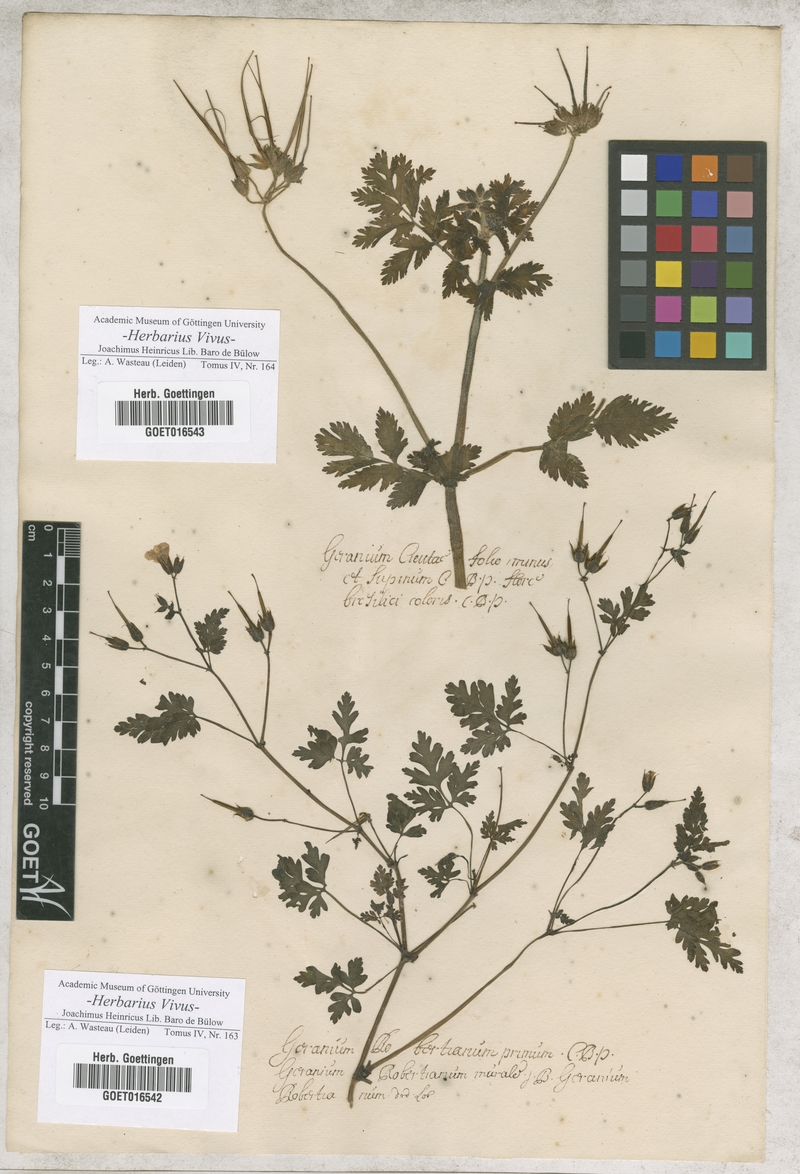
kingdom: Plantae
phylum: Tracheophyta
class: Magnoliopsida
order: Geraniales
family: Geraniaceae
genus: Geranium
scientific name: Geranium robertianum
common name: Herb-robert
